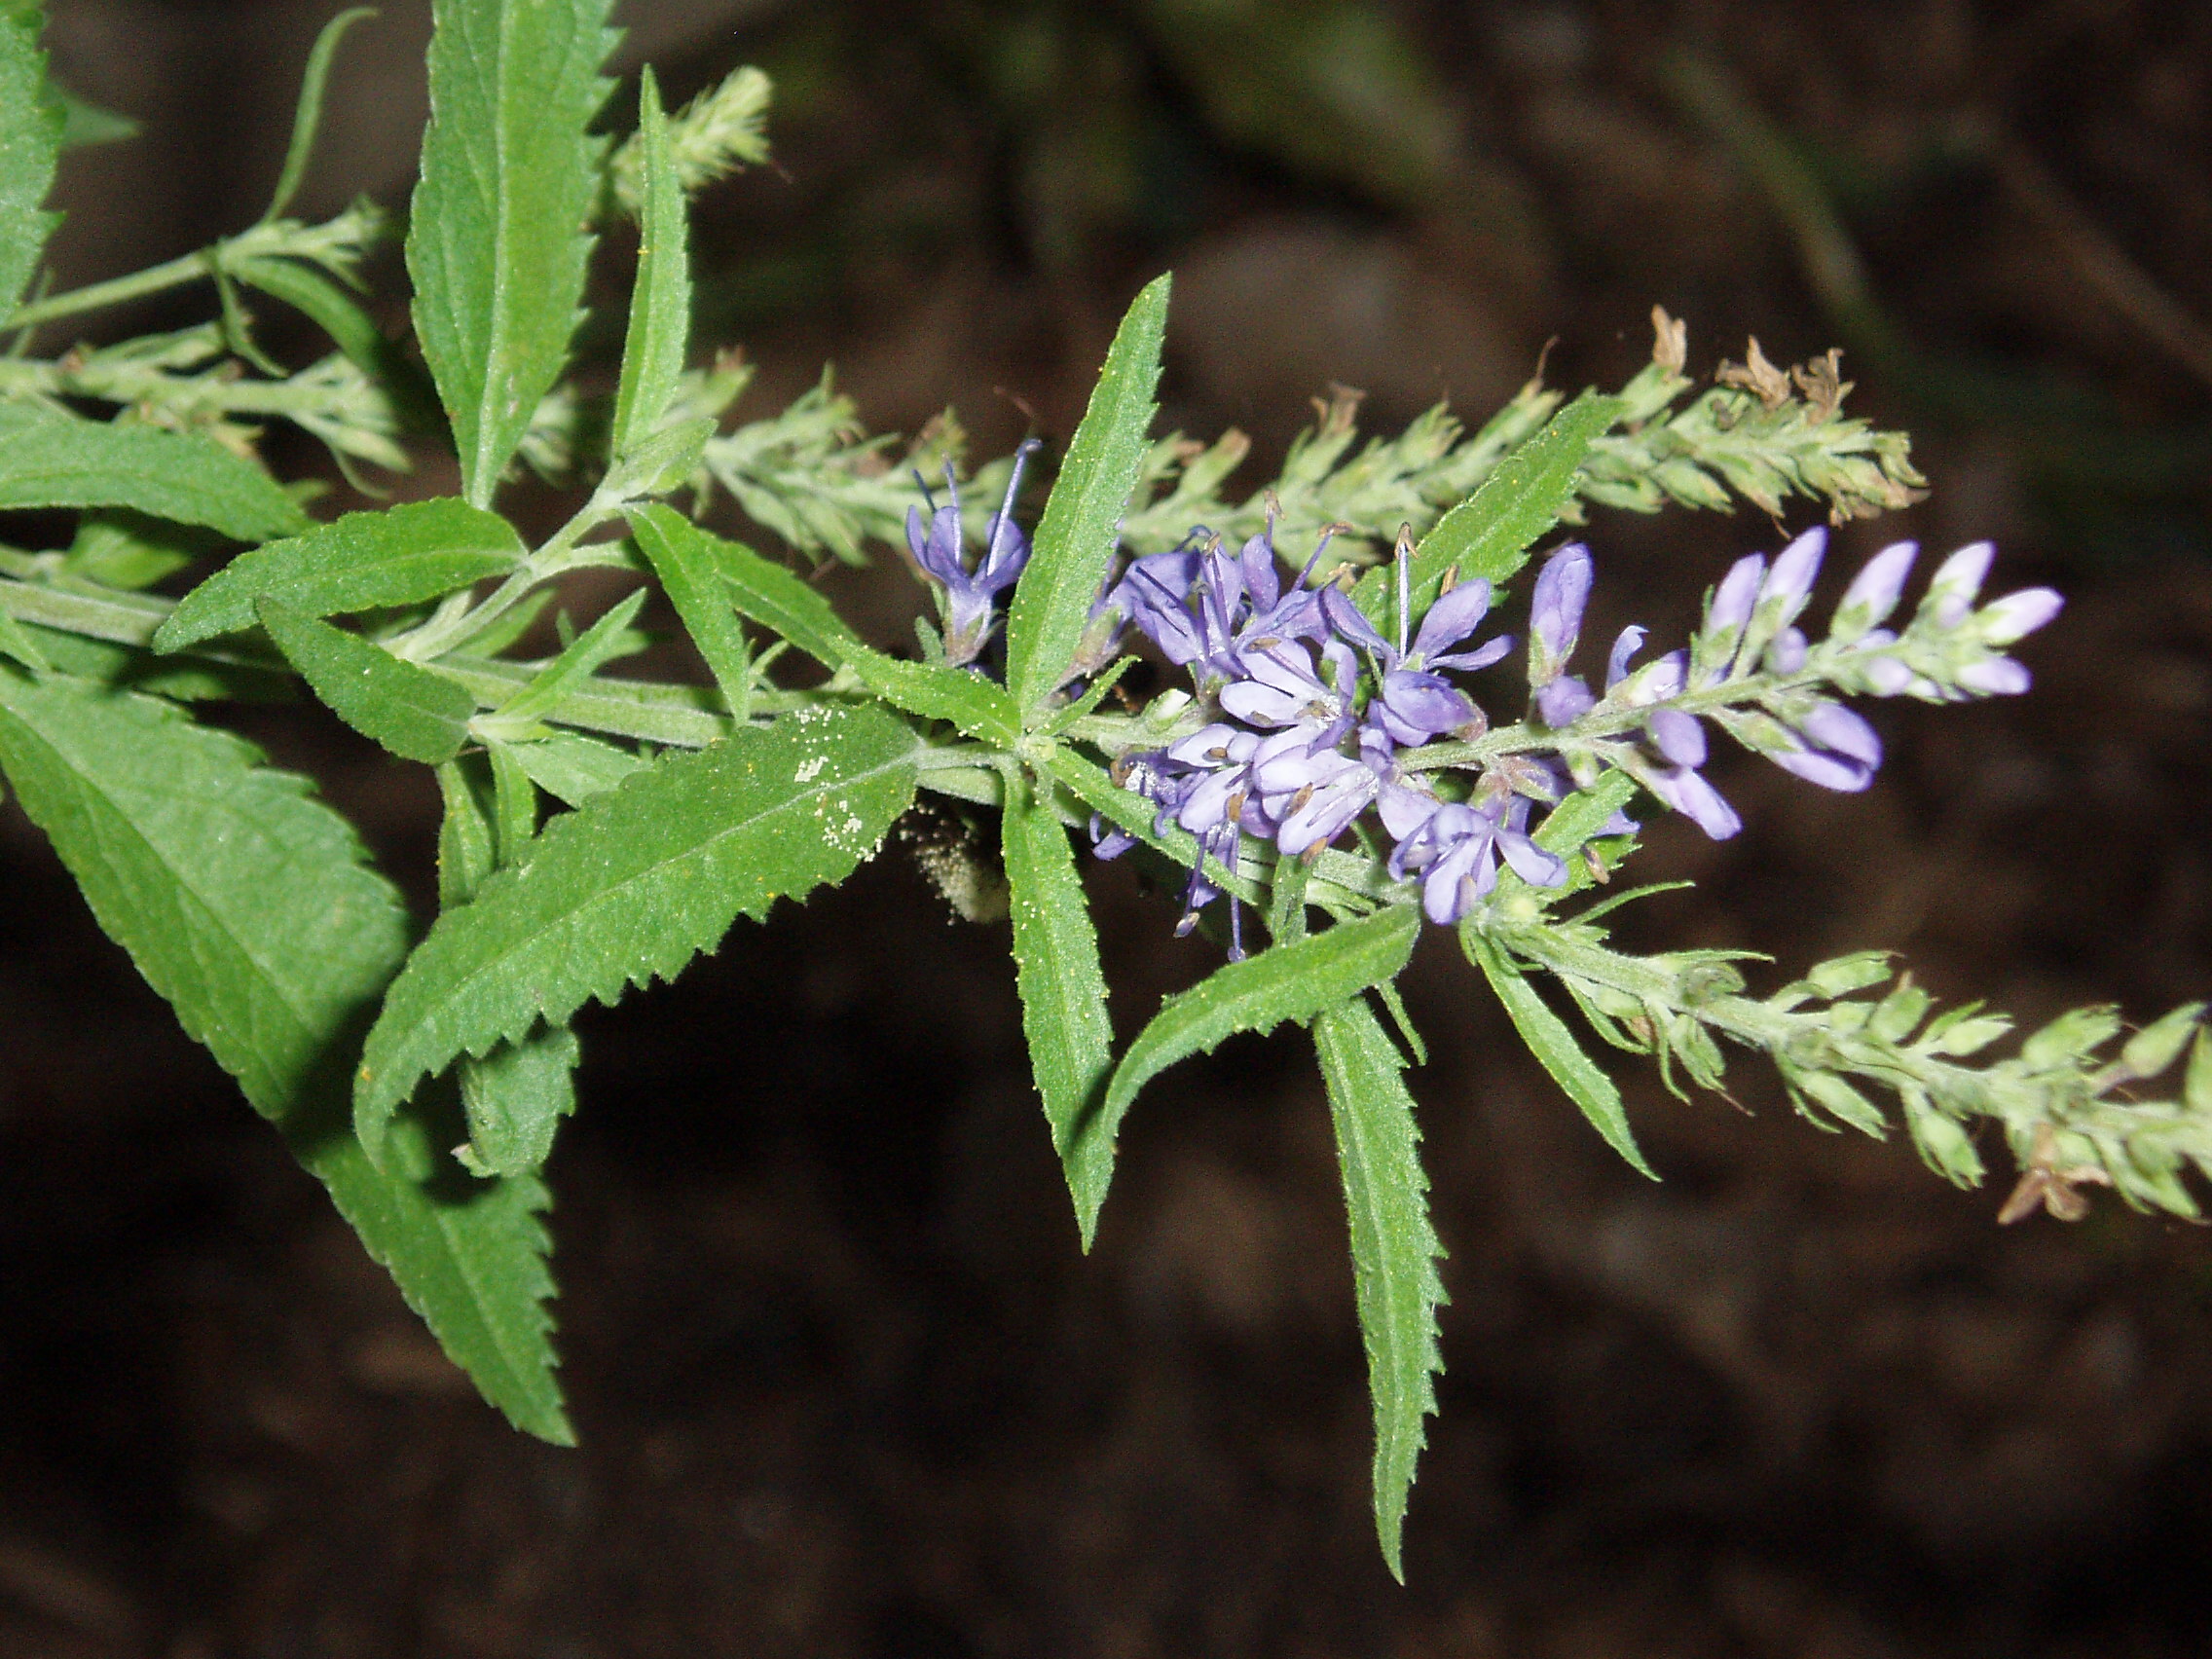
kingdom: Plantae
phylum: Tracheophyta
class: Magnoliopsida
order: Lamiales
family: Plantaginaceae
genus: Veronica
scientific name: Veronica longifolia
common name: Garden speedwell
